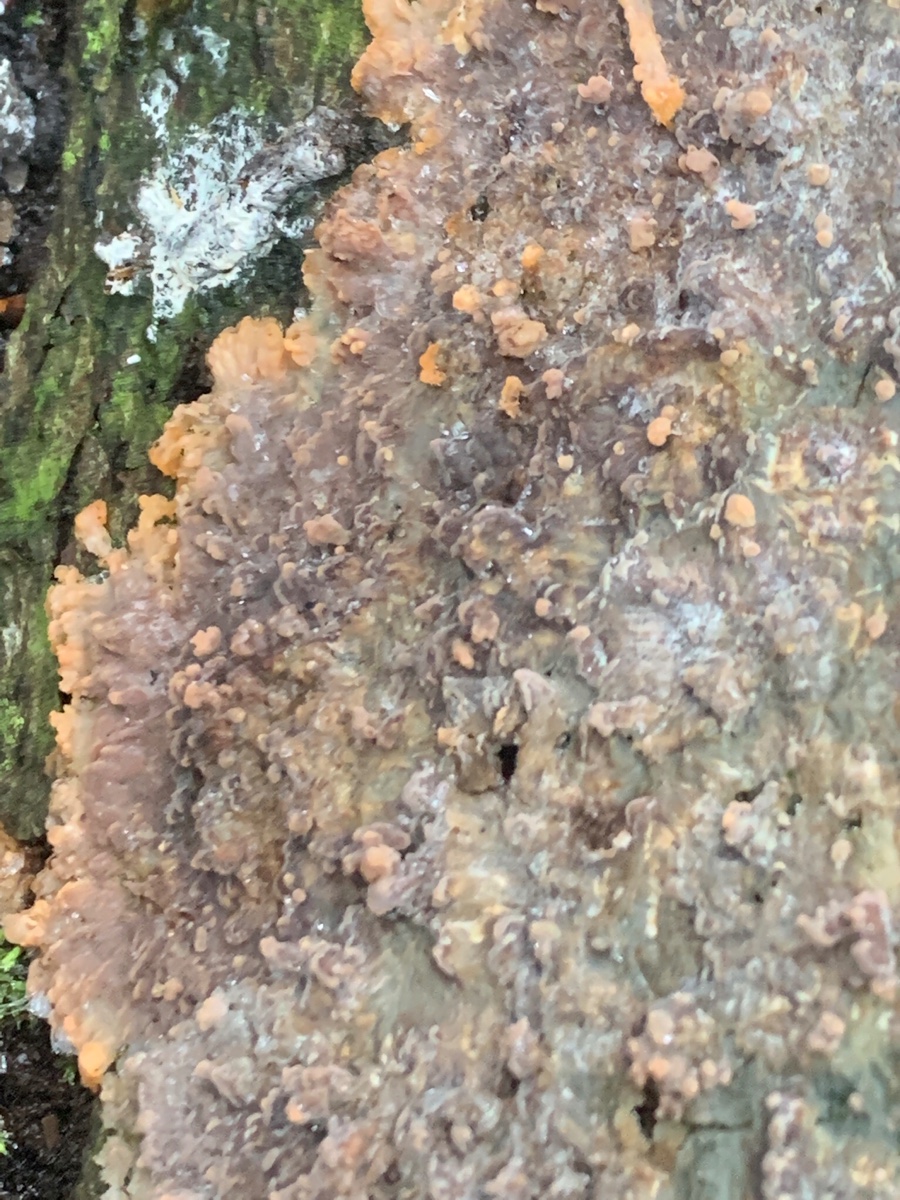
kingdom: Fungi
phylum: Basidiomycota
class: Agaricomycetes
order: Polyporales
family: Meruliaceae
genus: Phlebia
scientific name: Phlebia radiata
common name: stråle-åresvamp
